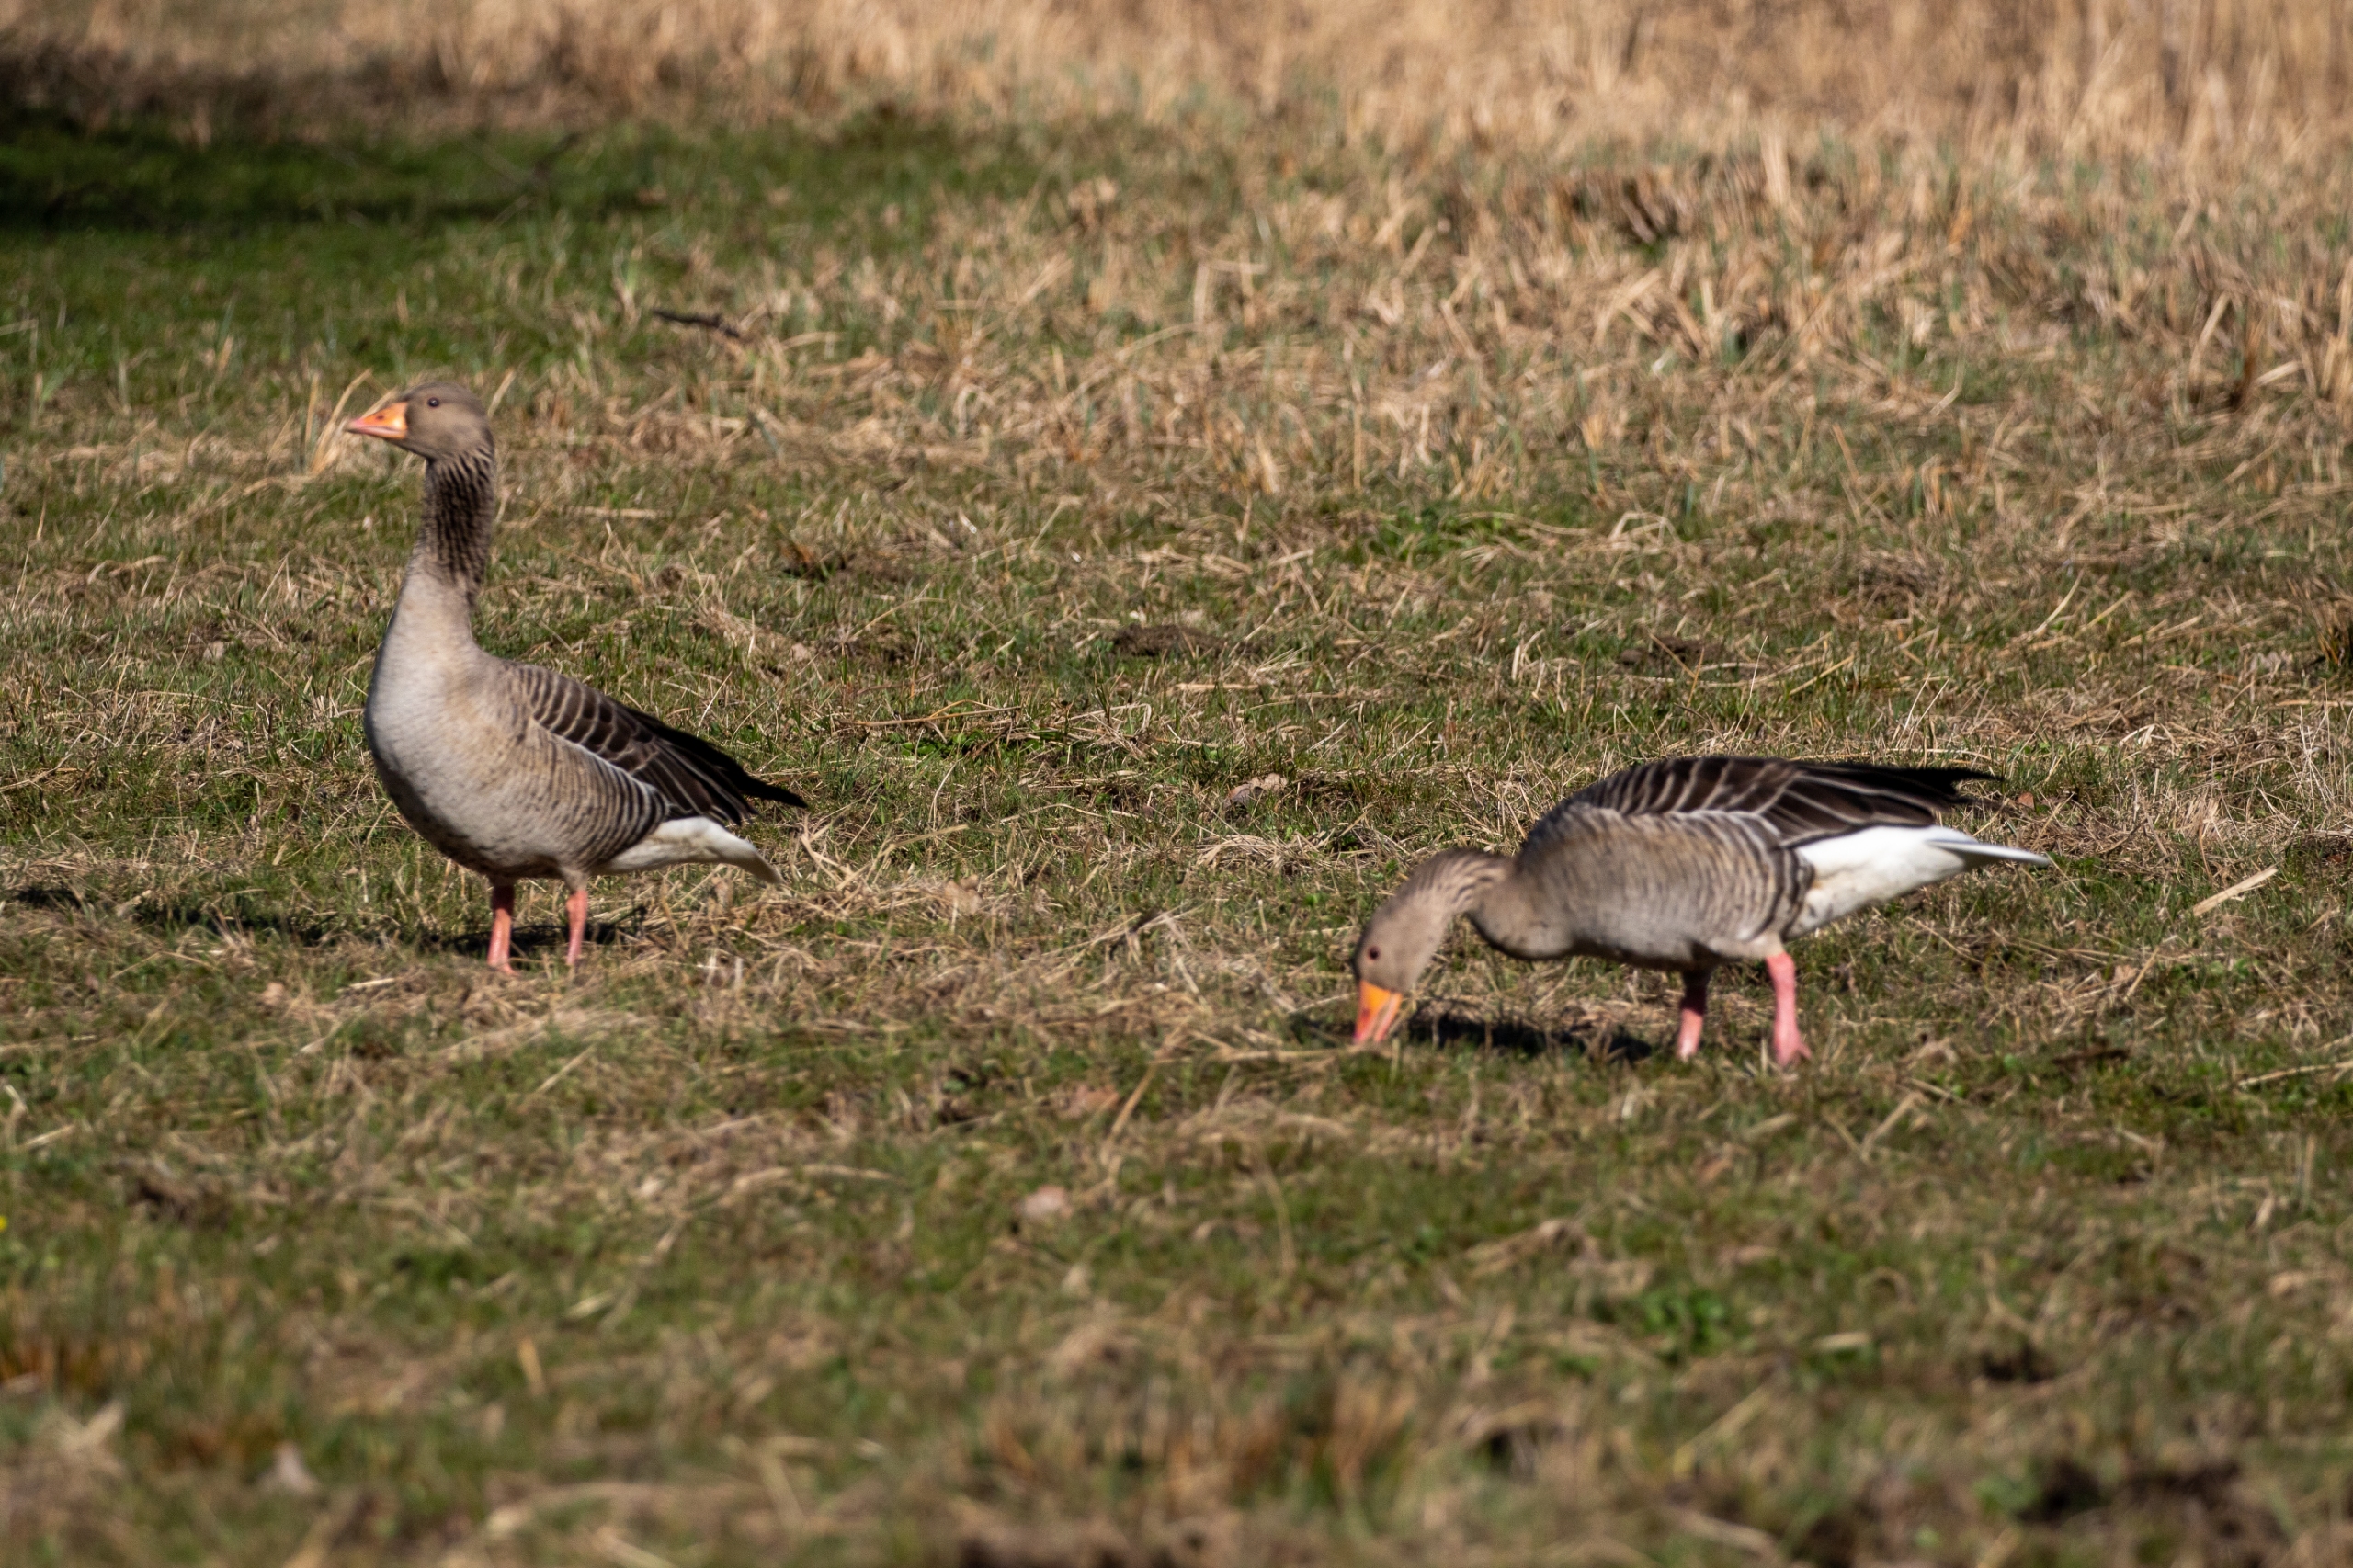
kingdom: Animalia
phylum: Chordata
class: Aves
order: Anseriformes
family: Anatidae
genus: Anser
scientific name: Anser anser
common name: Grågås
